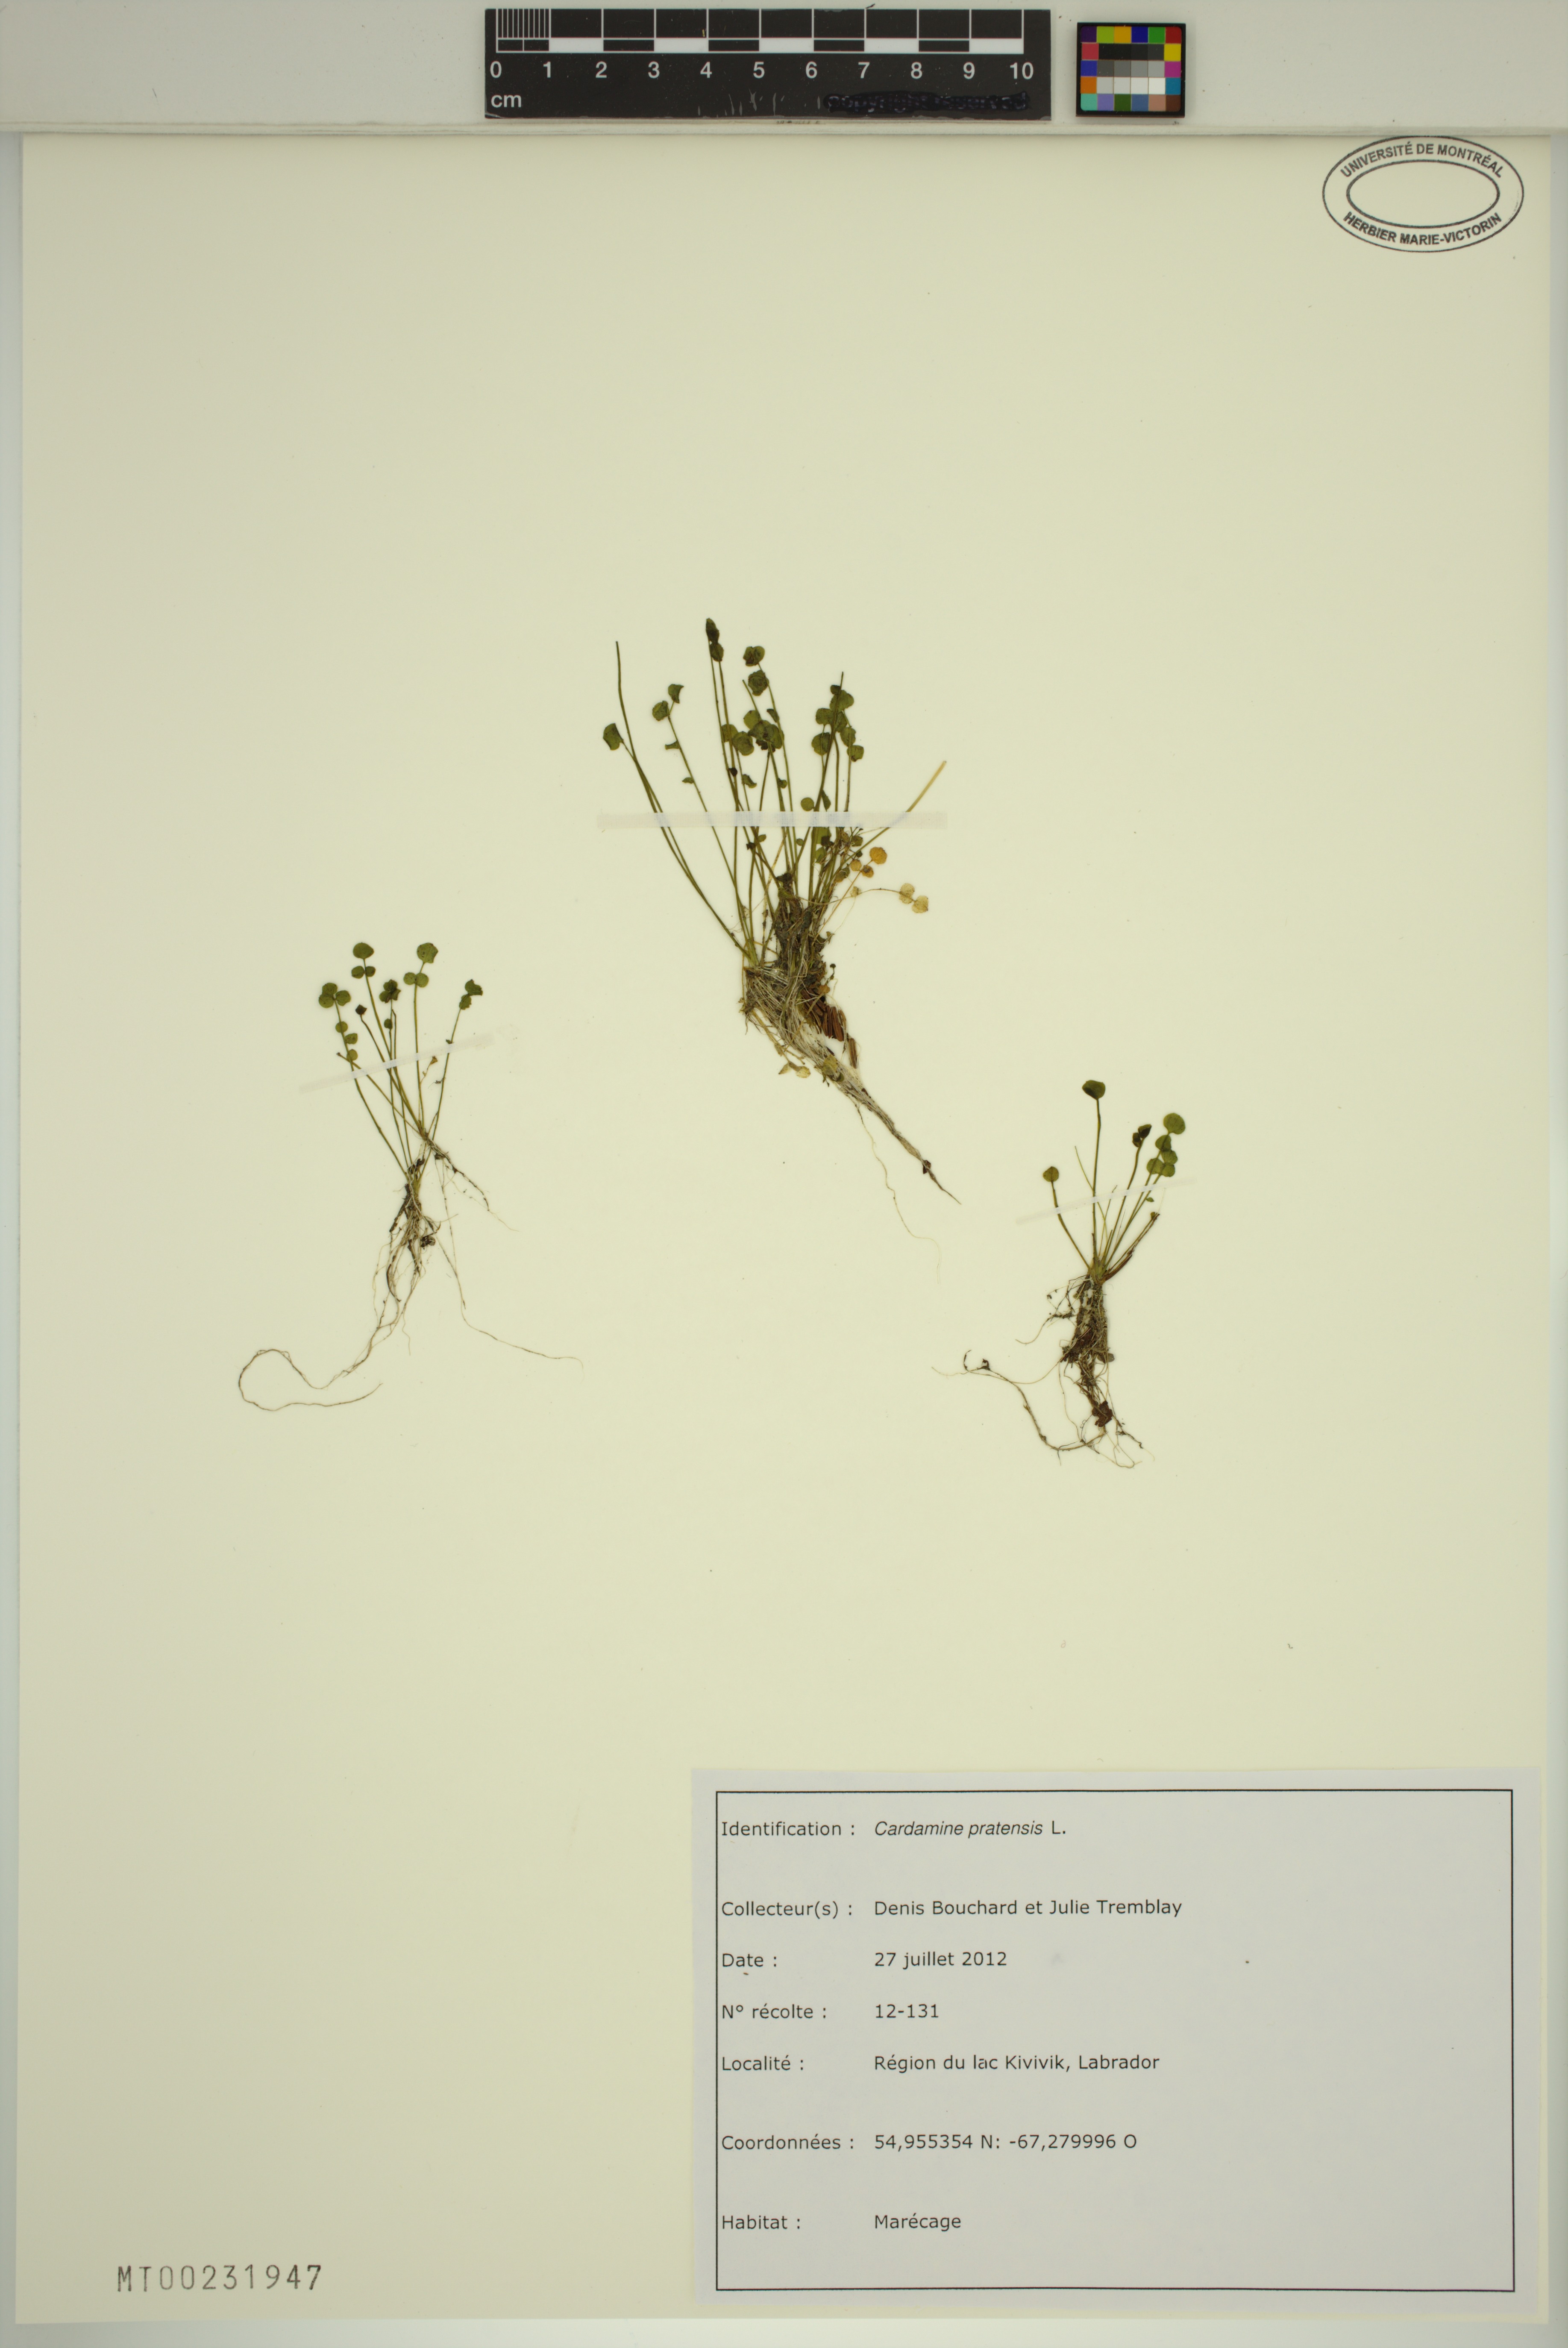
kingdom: Plantae
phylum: Tracheophyta
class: Magnoliopsida
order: Brassicales
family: Brassicaceae
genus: Cardamine
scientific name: Cardamine pratensis
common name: Cuckoo flower
